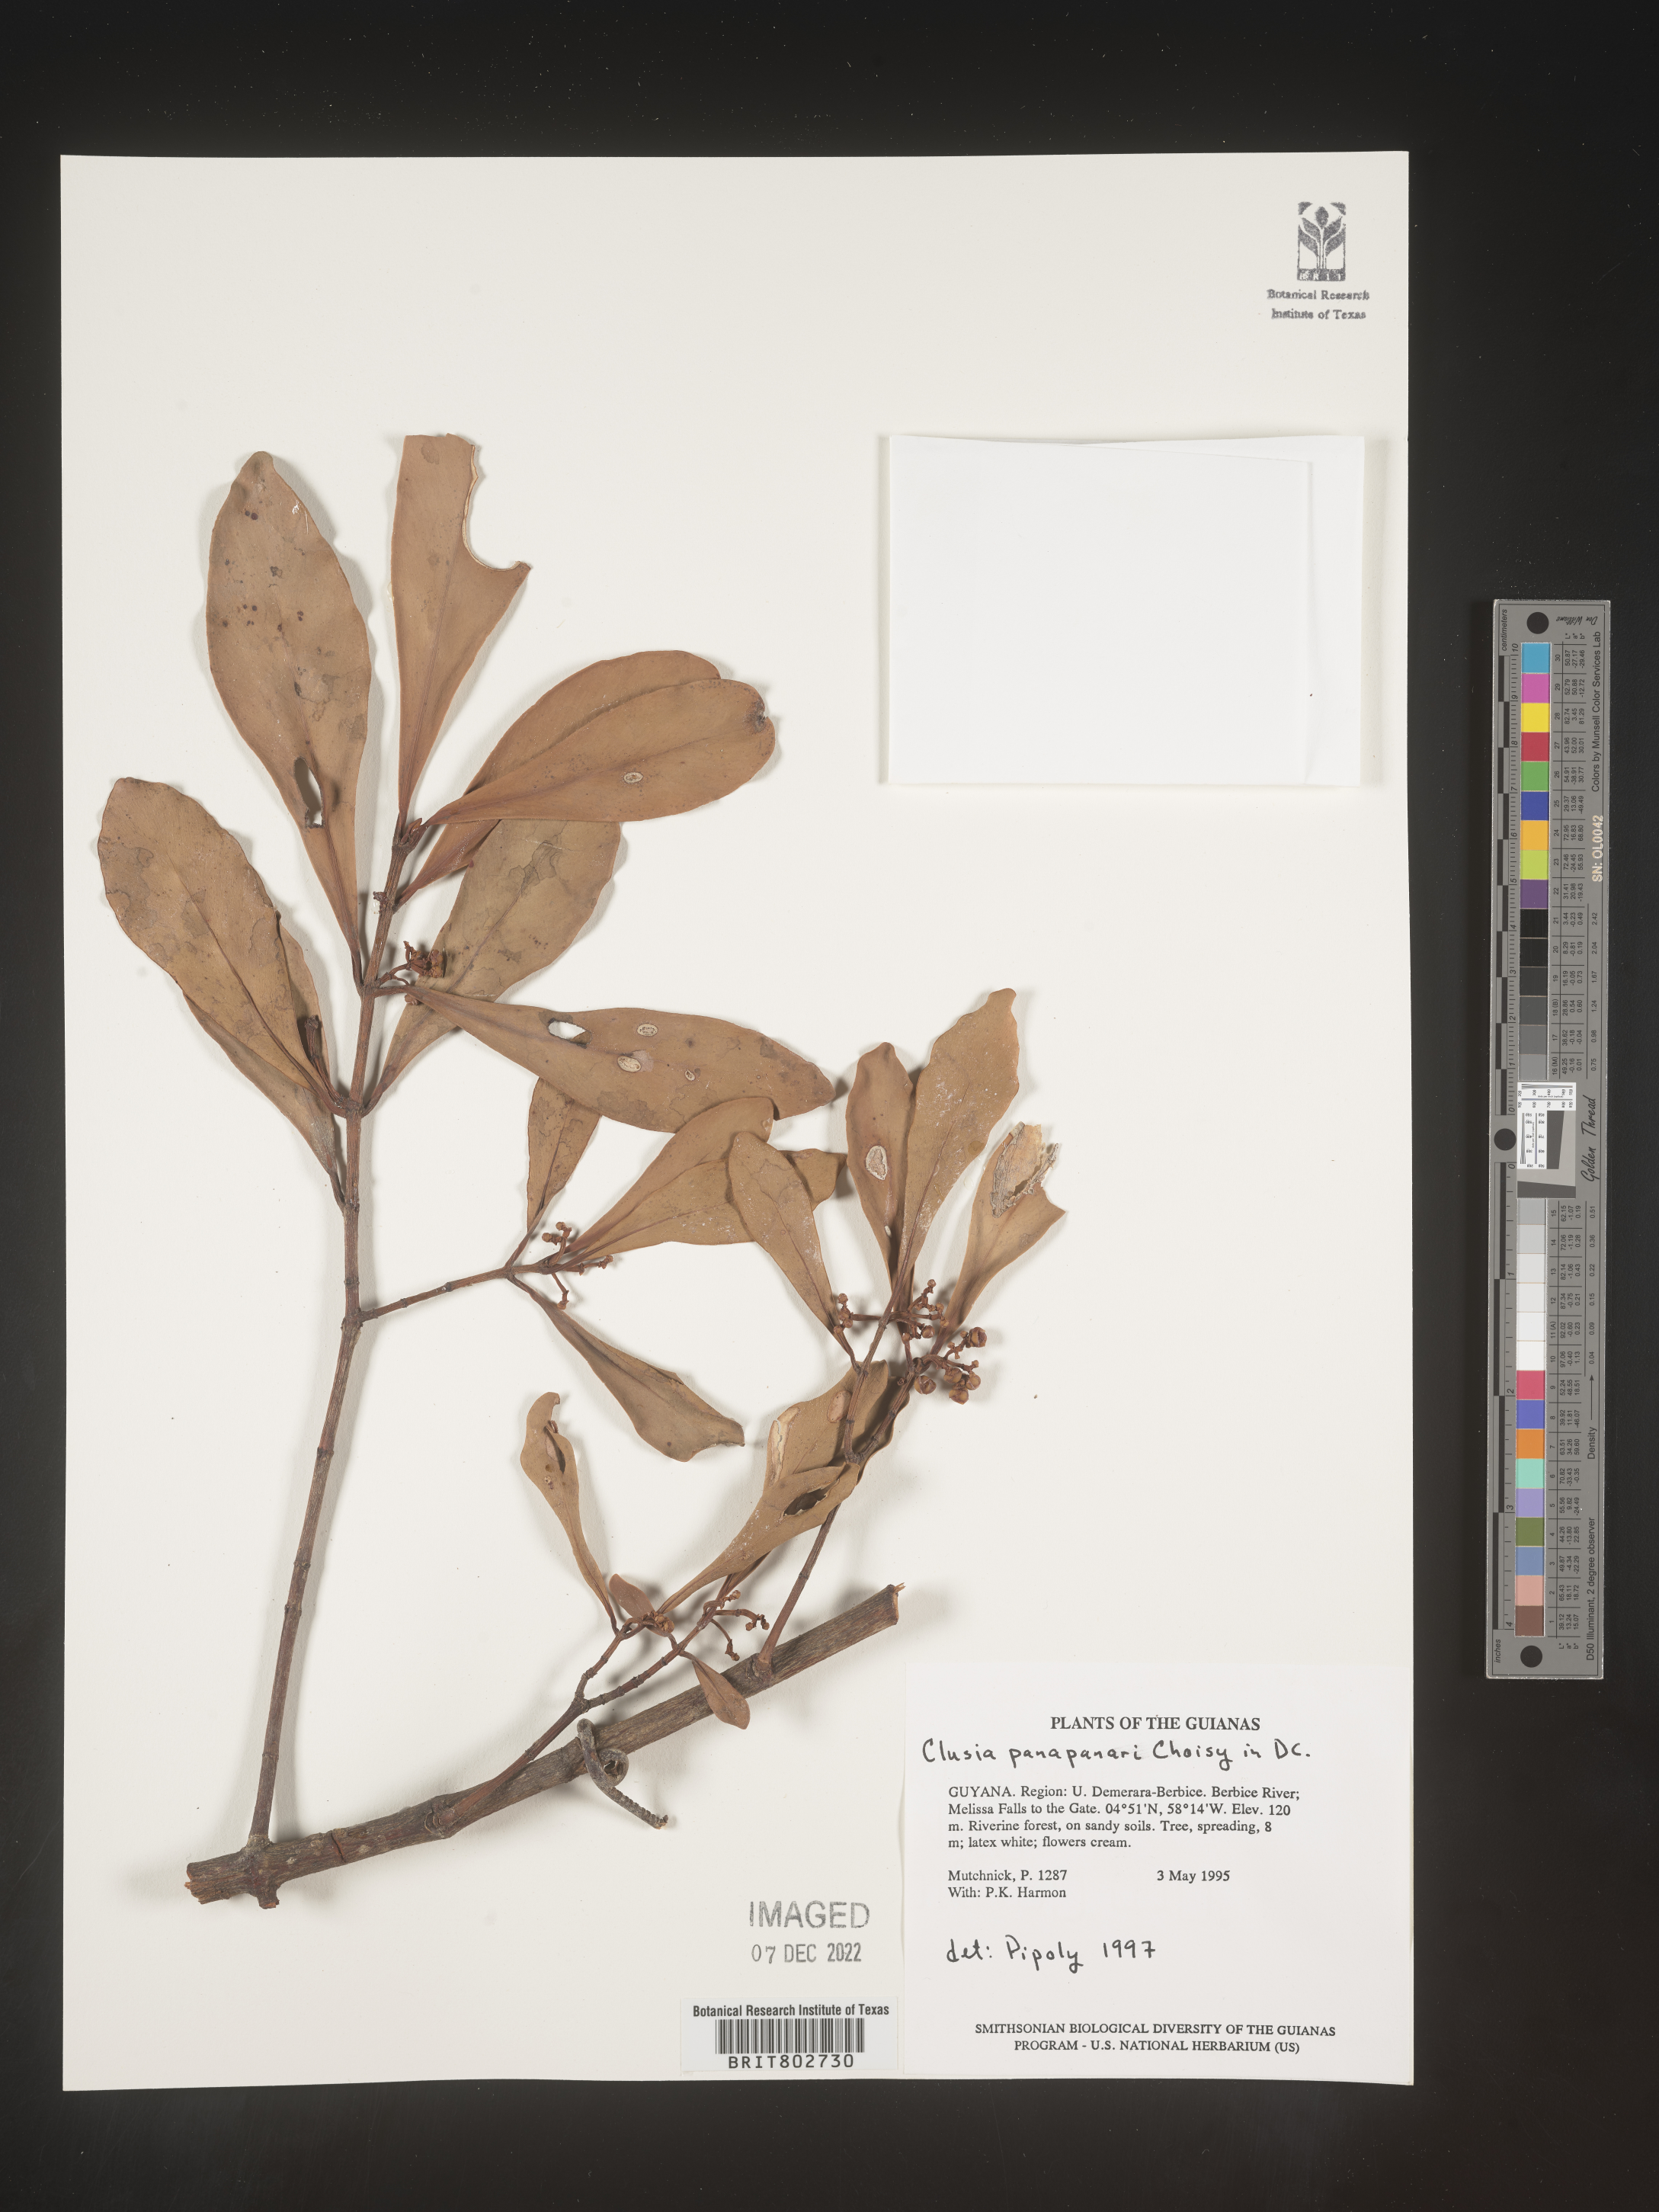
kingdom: Plantae
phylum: Tracheophyta
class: Magnoliopsida
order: Malpighiales
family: Clusiaceae
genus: Clusia
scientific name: Clusia panapanari
